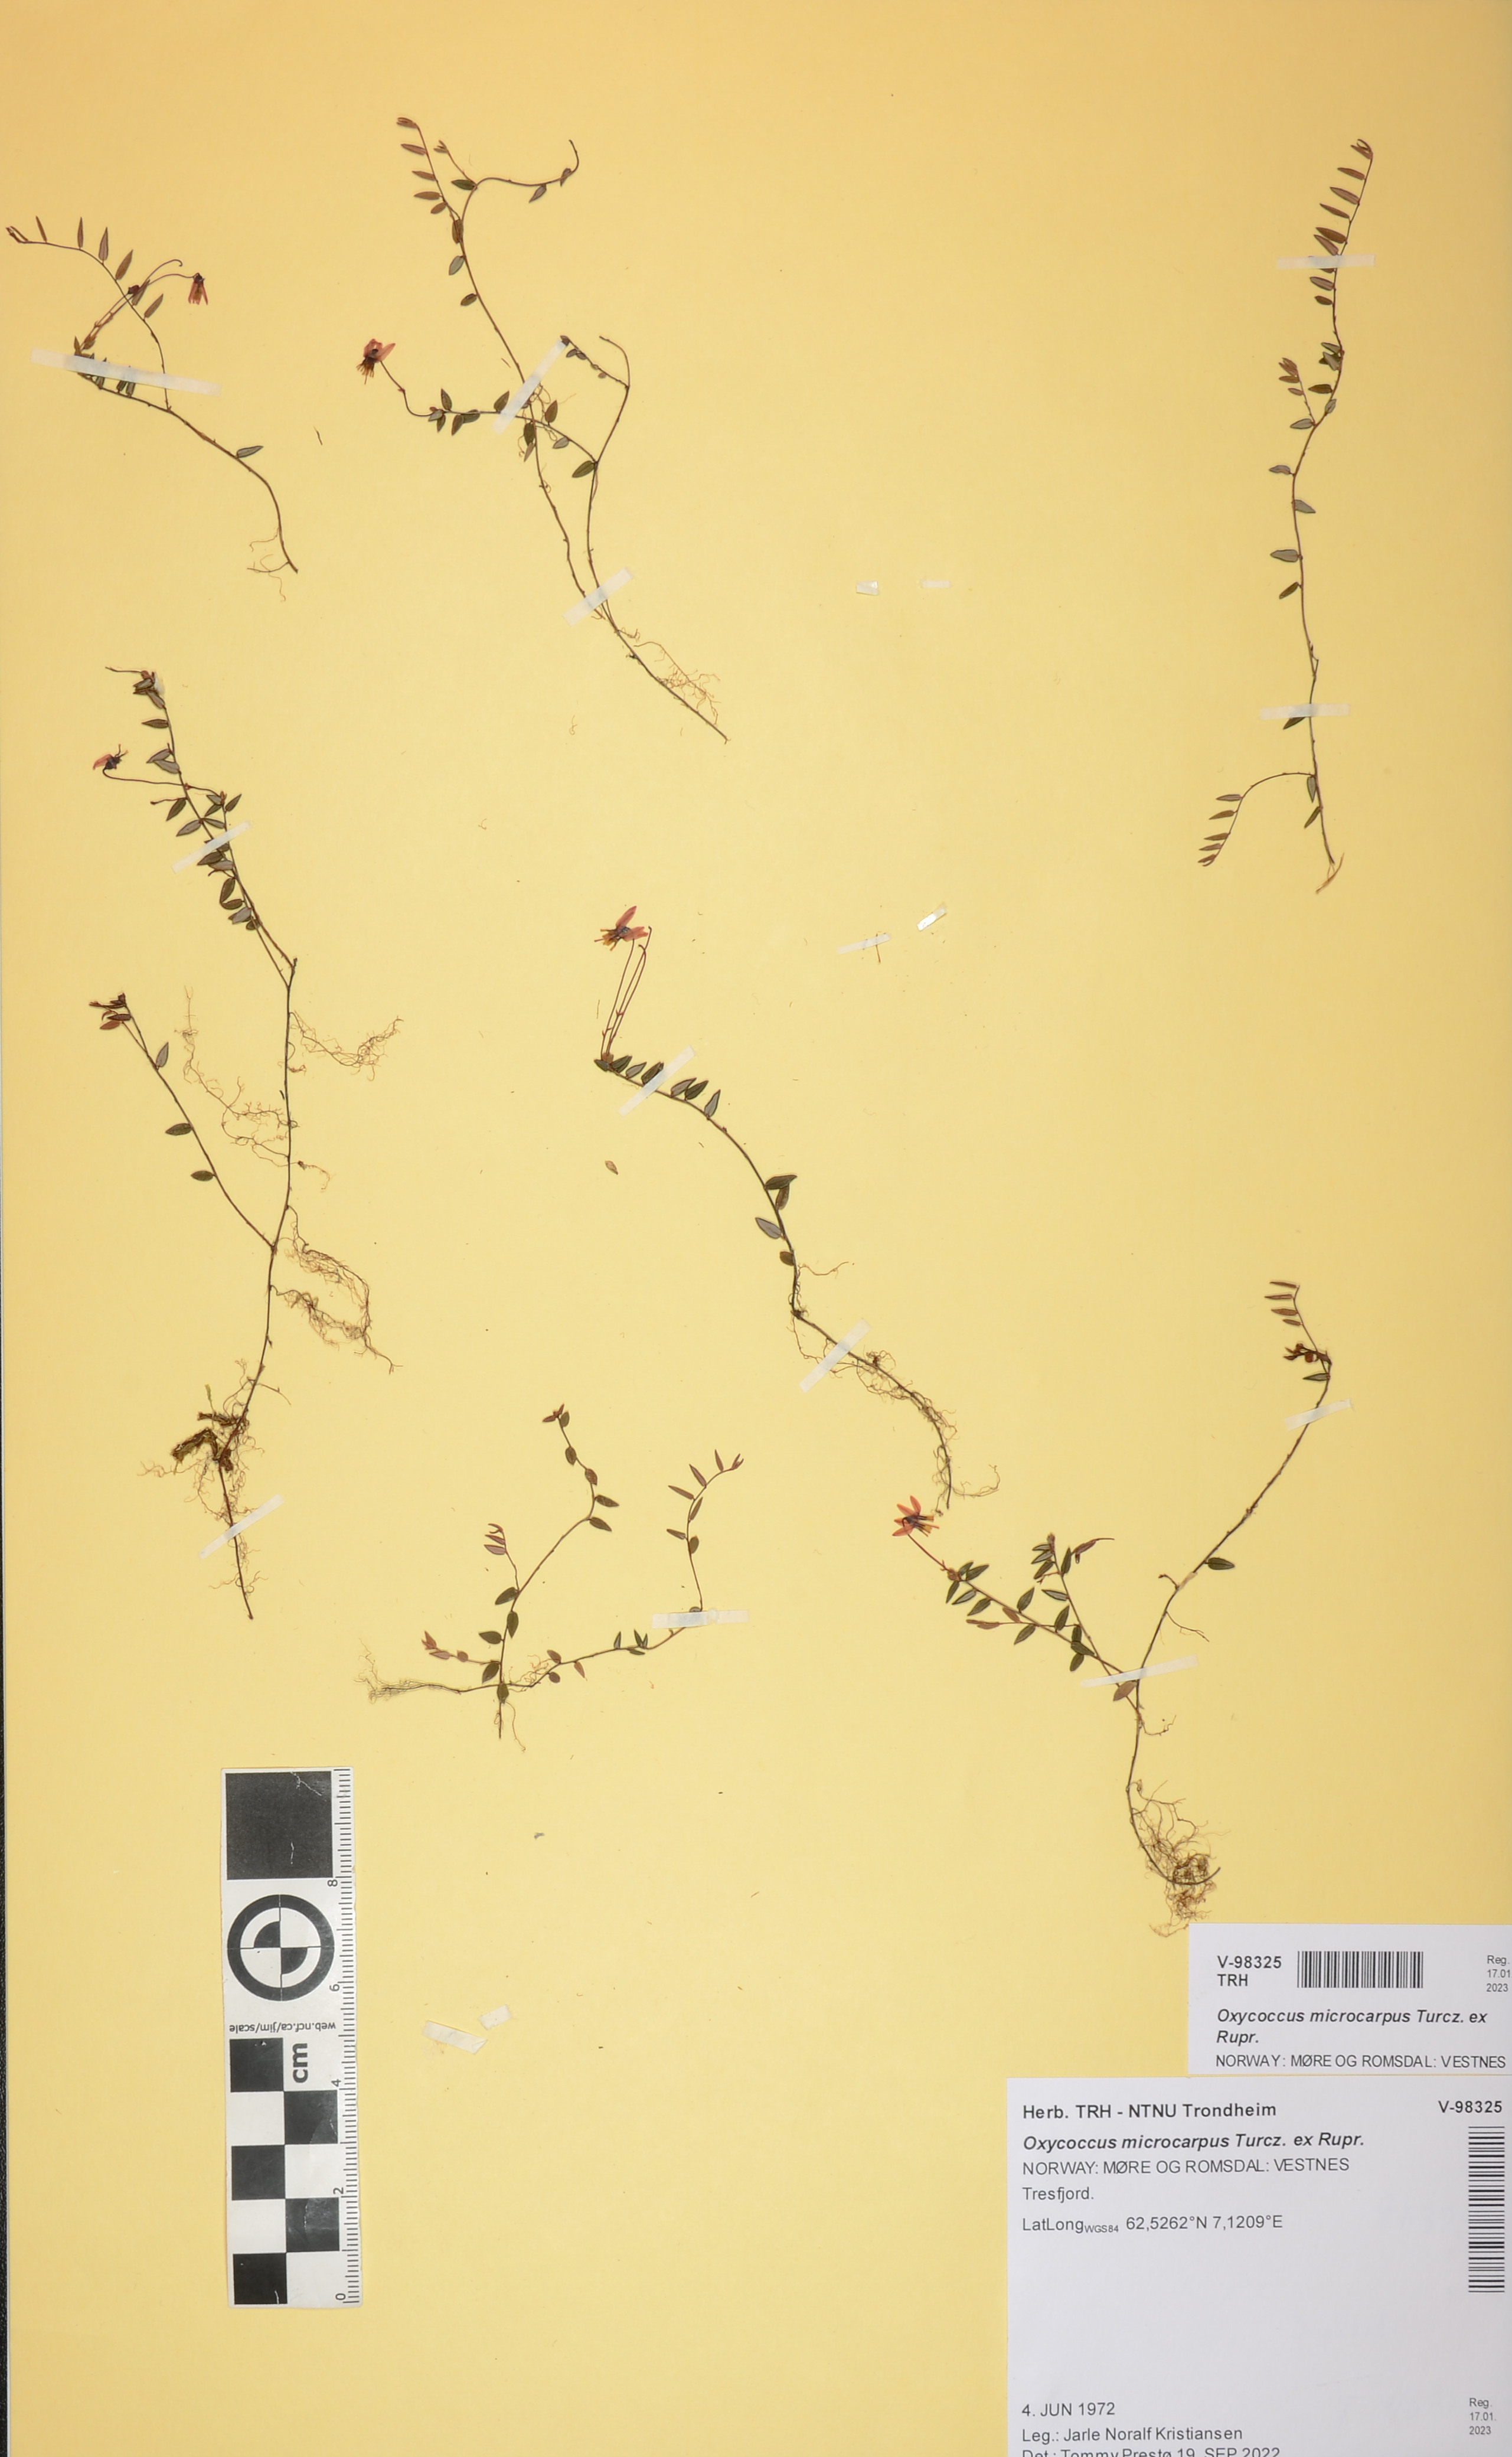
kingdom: Plantae
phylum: Tracheophyta
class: Magnoliopsida
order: Ericales
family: Ericaceae
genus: Vaccinium
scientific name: Vaccinium microcarpum
